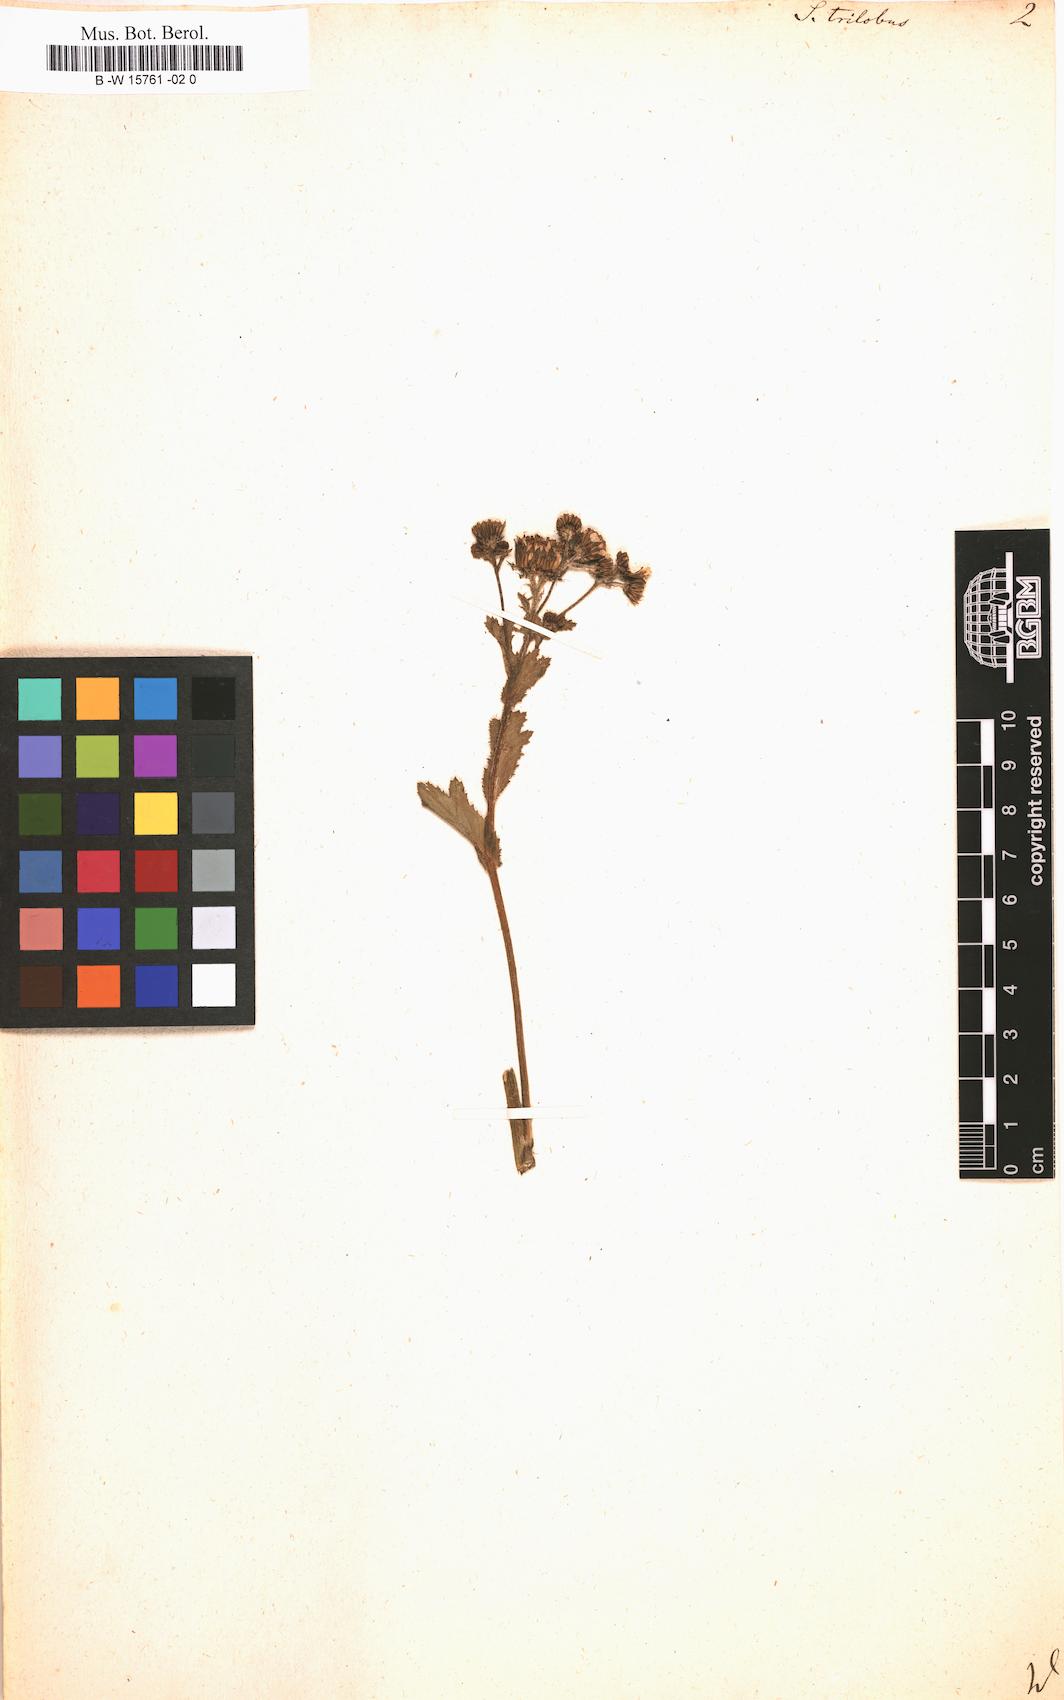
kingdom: Plantae
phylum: Tracheophyta
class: Magnoliopsida
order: Asterales
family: Asteraceae
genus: Senecio
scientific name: Senecio trilobus
